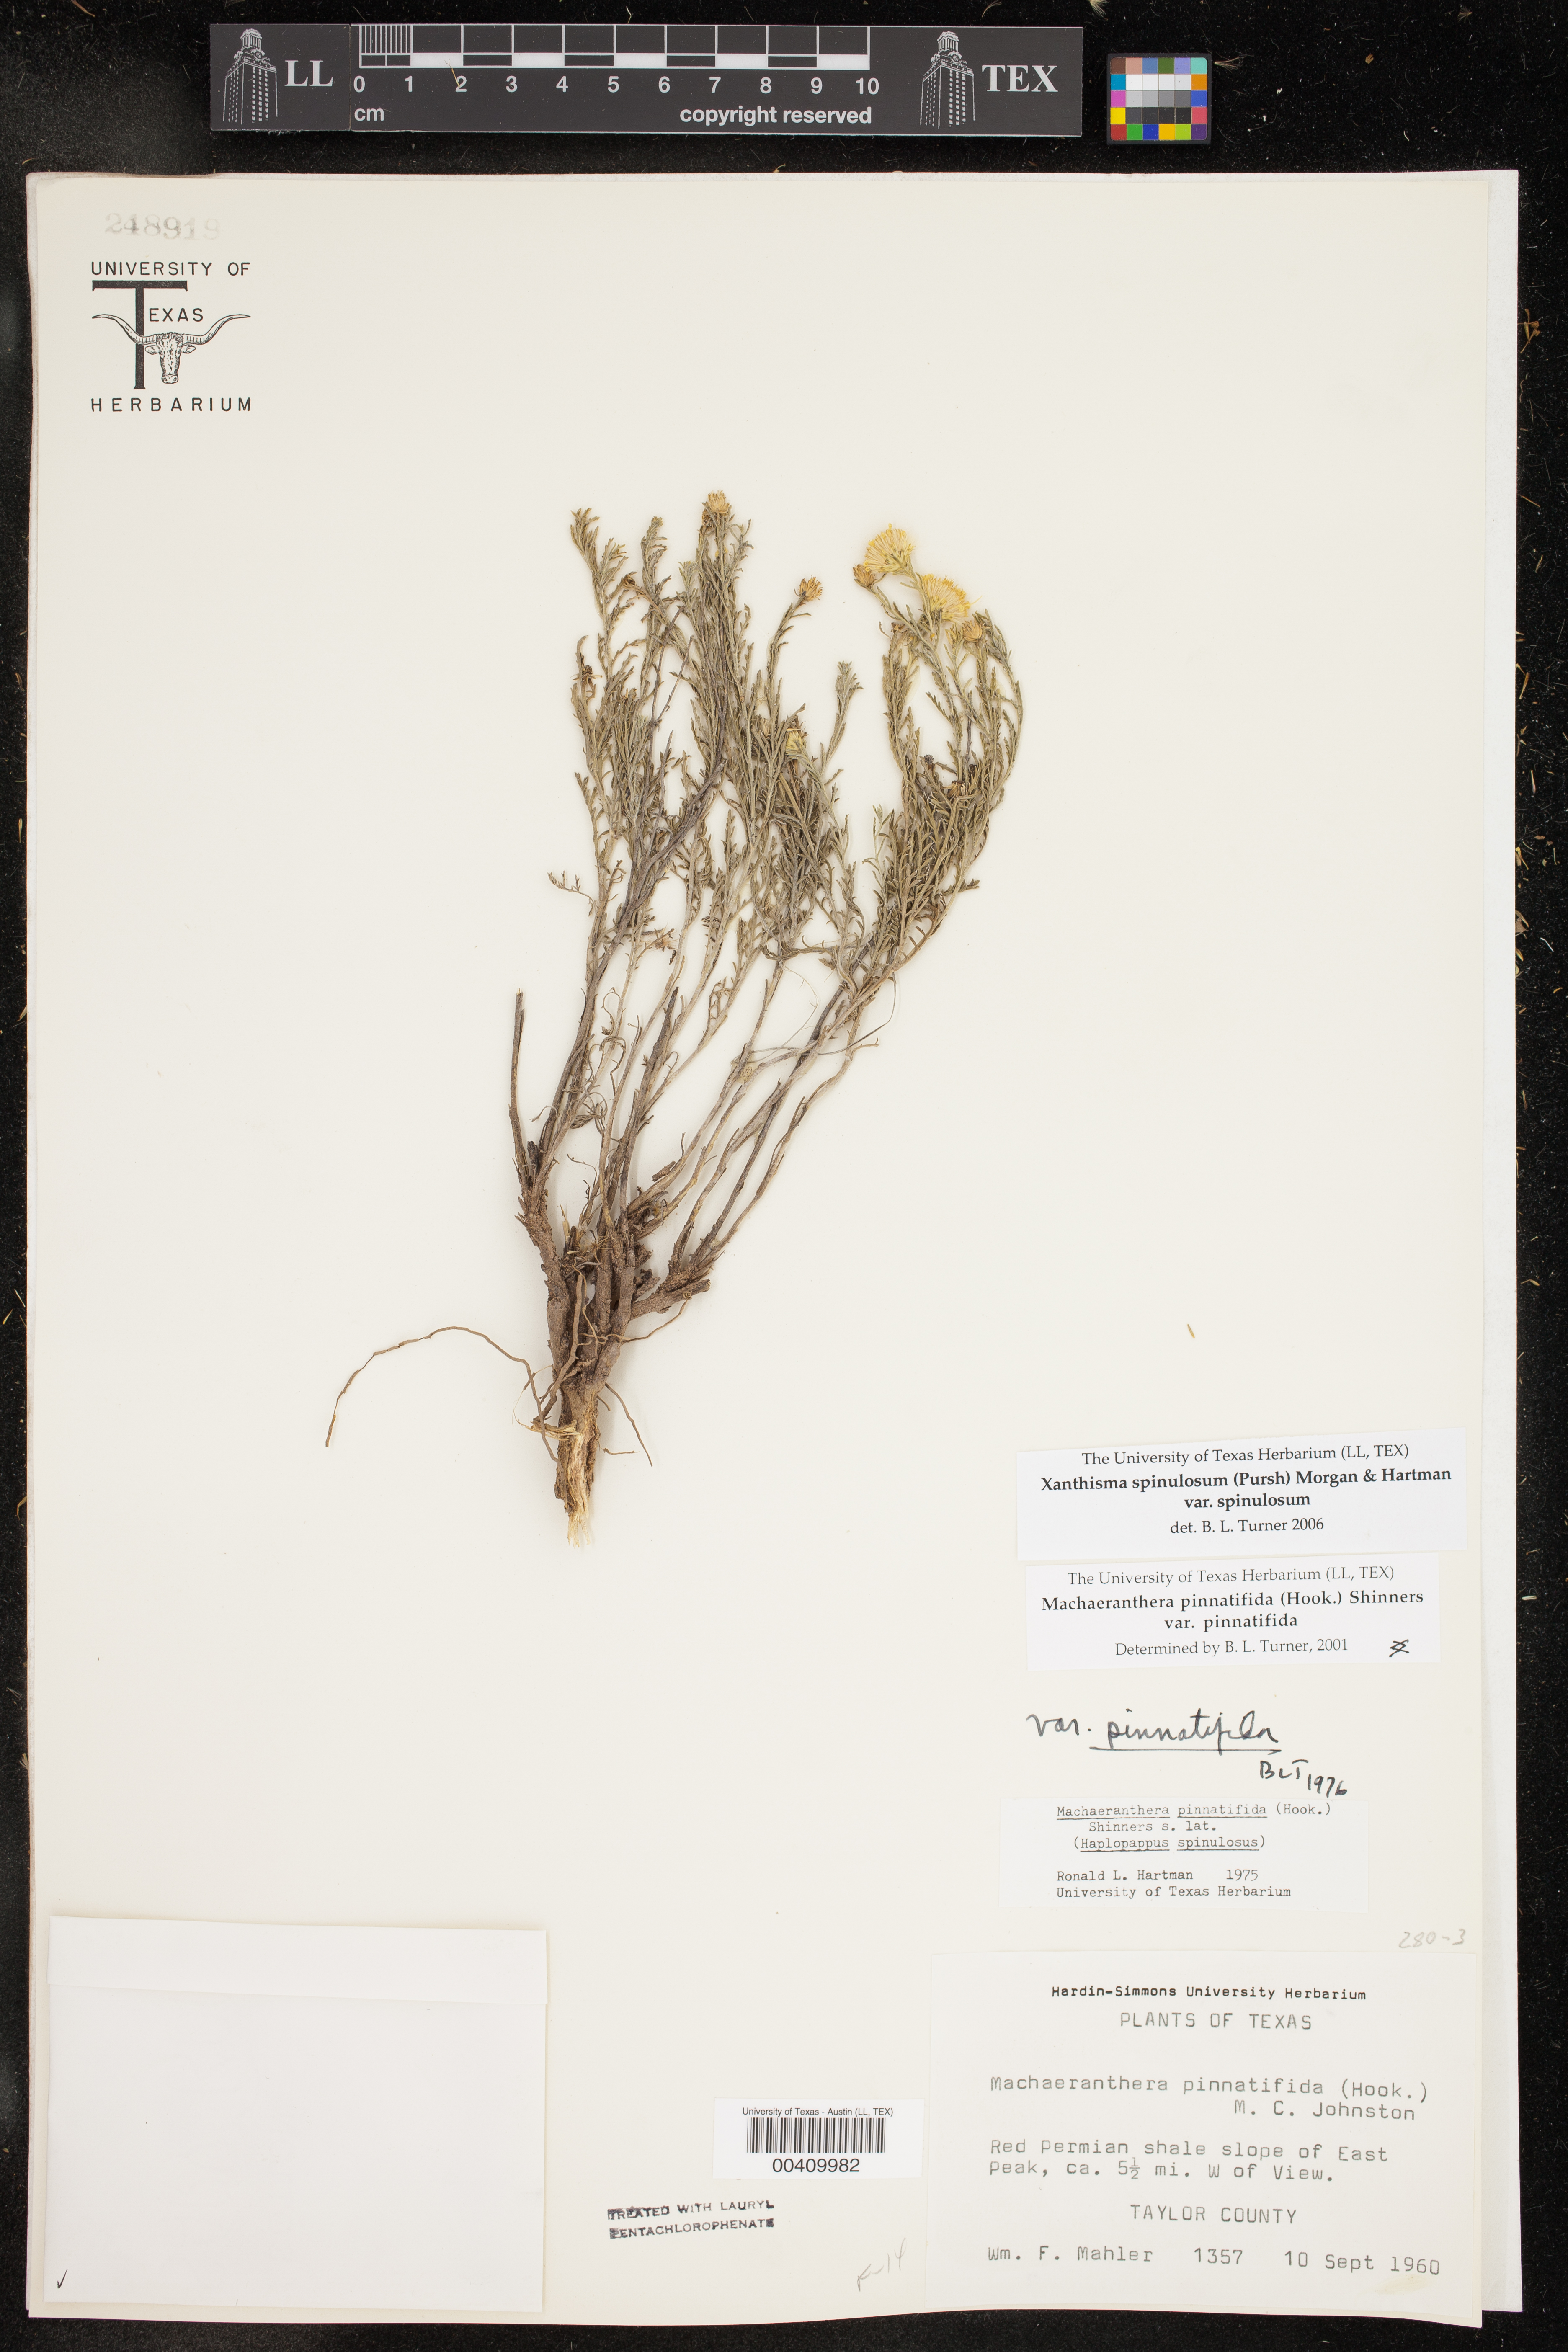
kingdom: Plantae
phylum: Tracheophyta
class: Magnoliopsida
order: Asterales
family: Asteraceae
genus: Xanthisma
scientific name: Xanthisma spinulosum
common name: Spiny goldenweed
